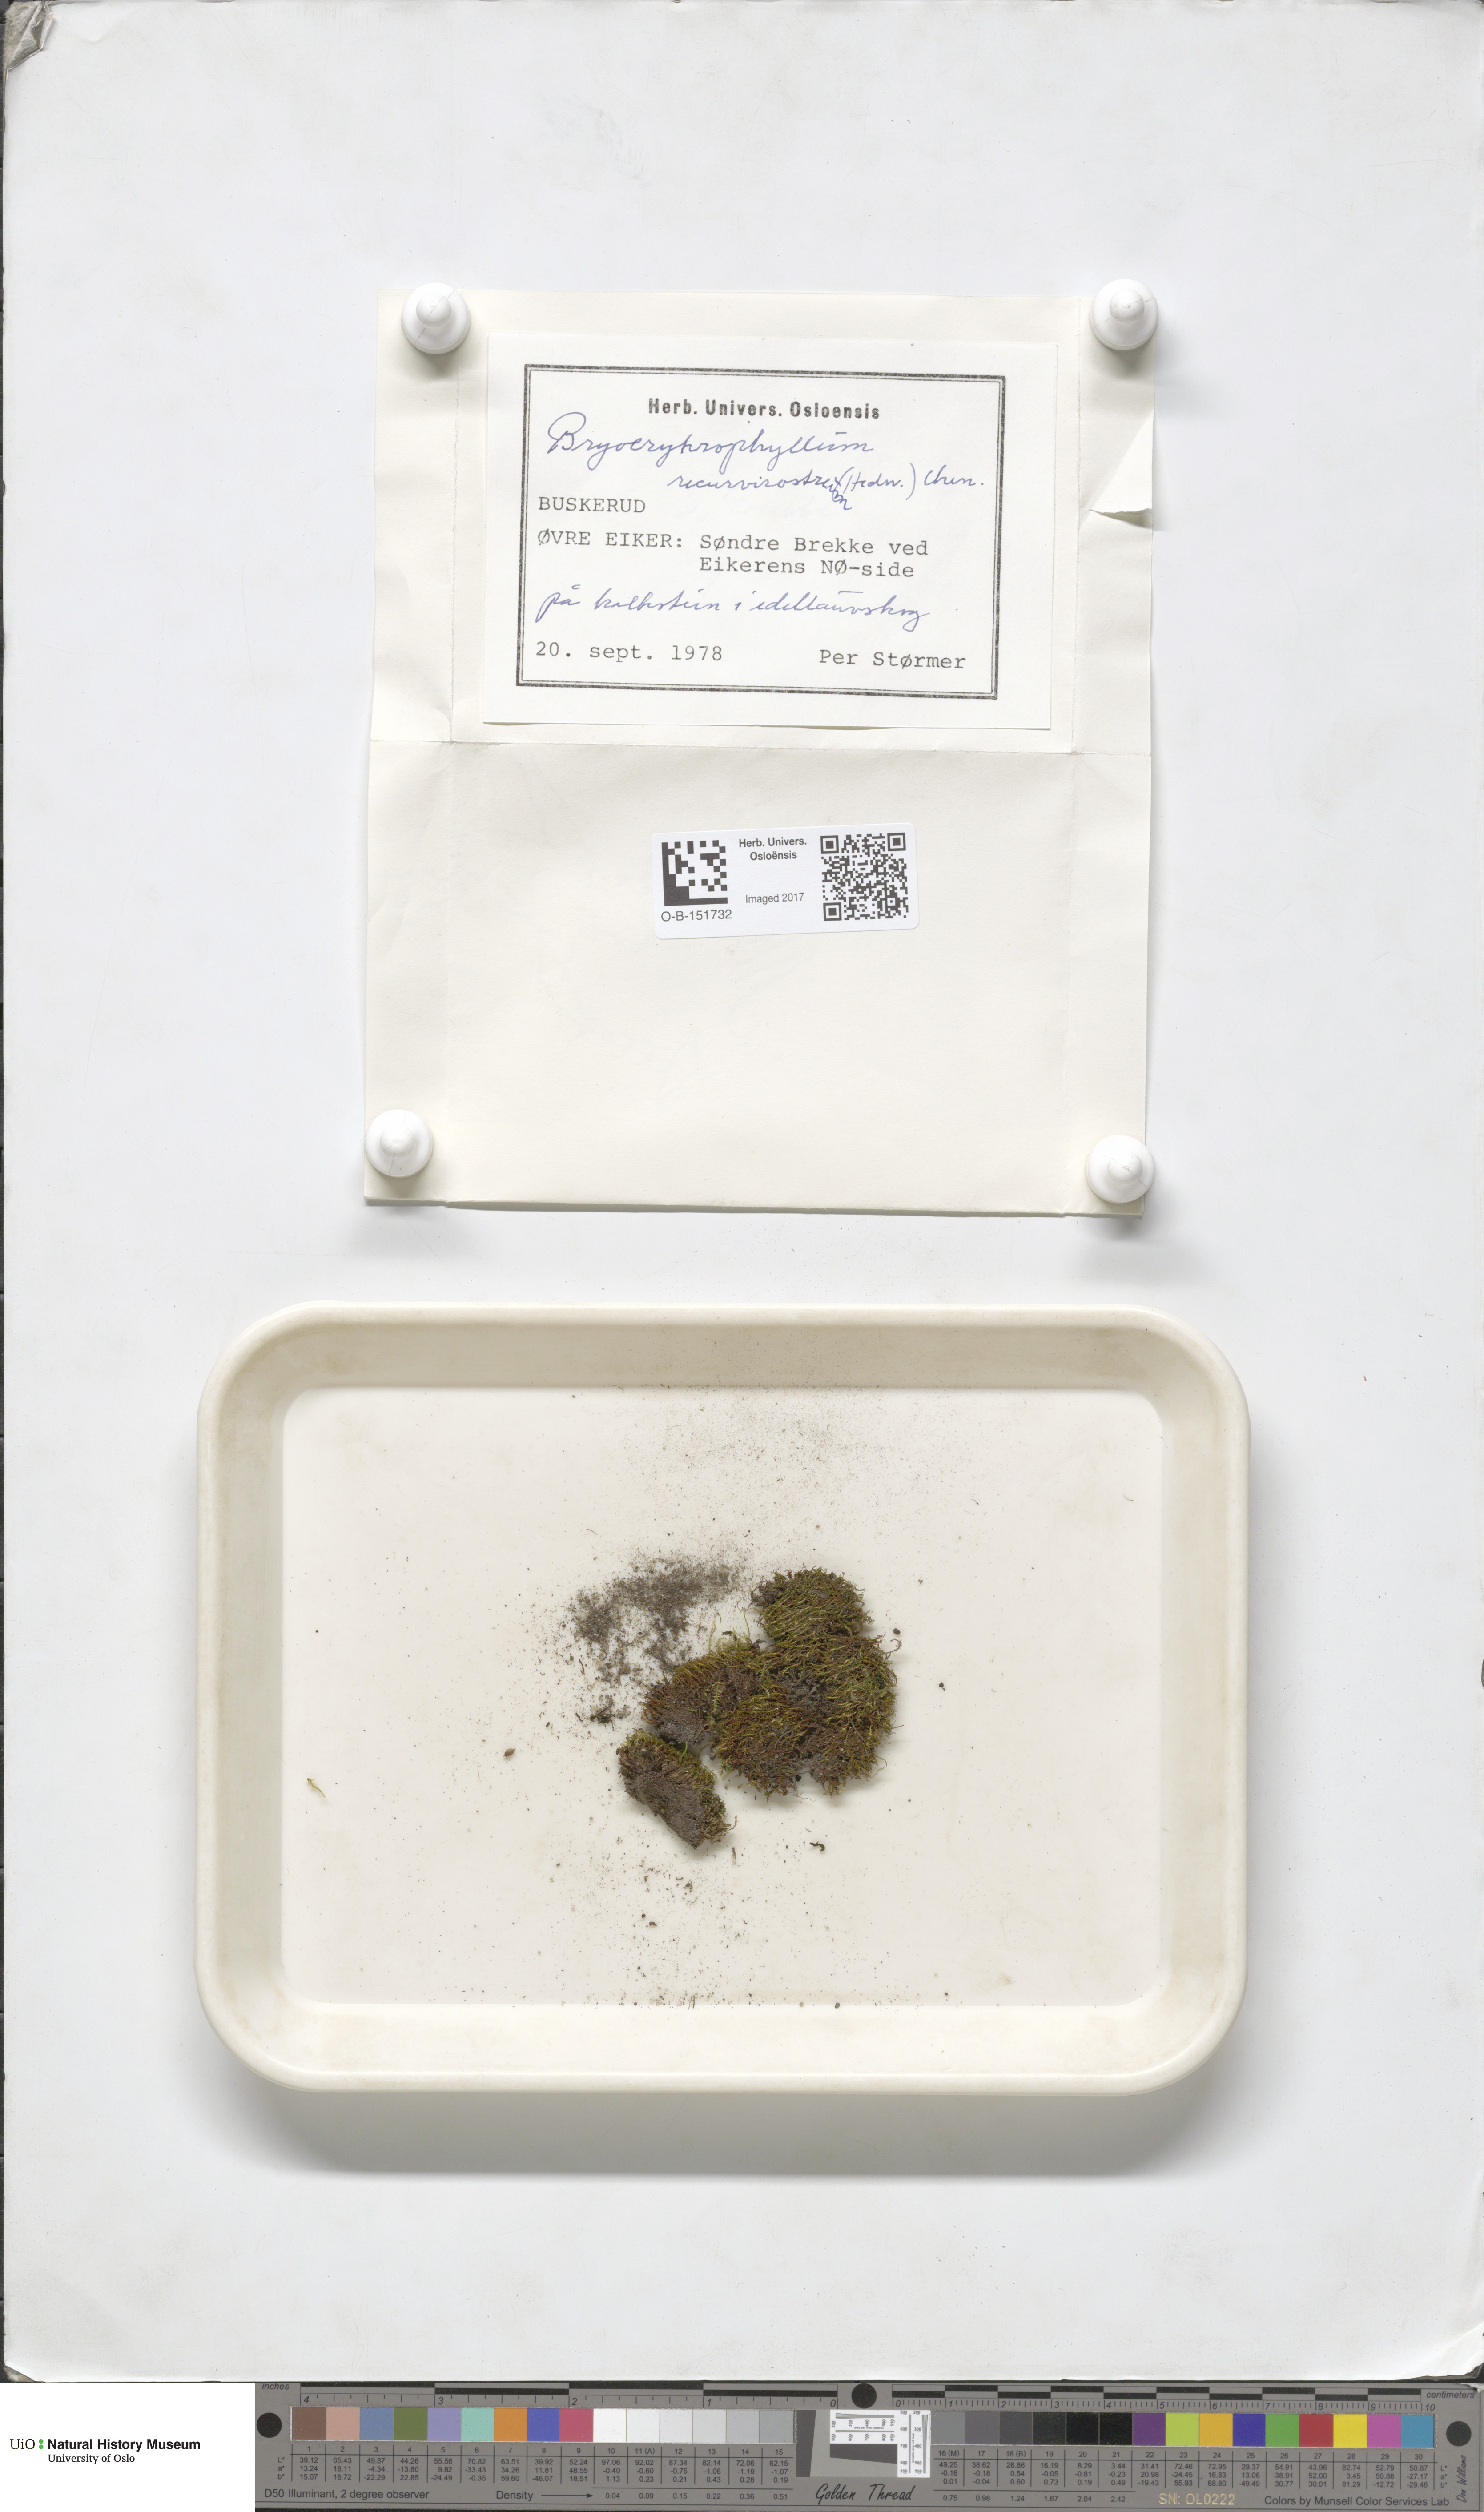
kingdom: Plantae
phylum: Bryophyta
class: Bryopsida
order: Pottiales
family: Pottiaceae
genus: Bryoerythrophyllum
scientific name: Bryoerythrophyllum recurvirostrum
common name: Red beard moss
